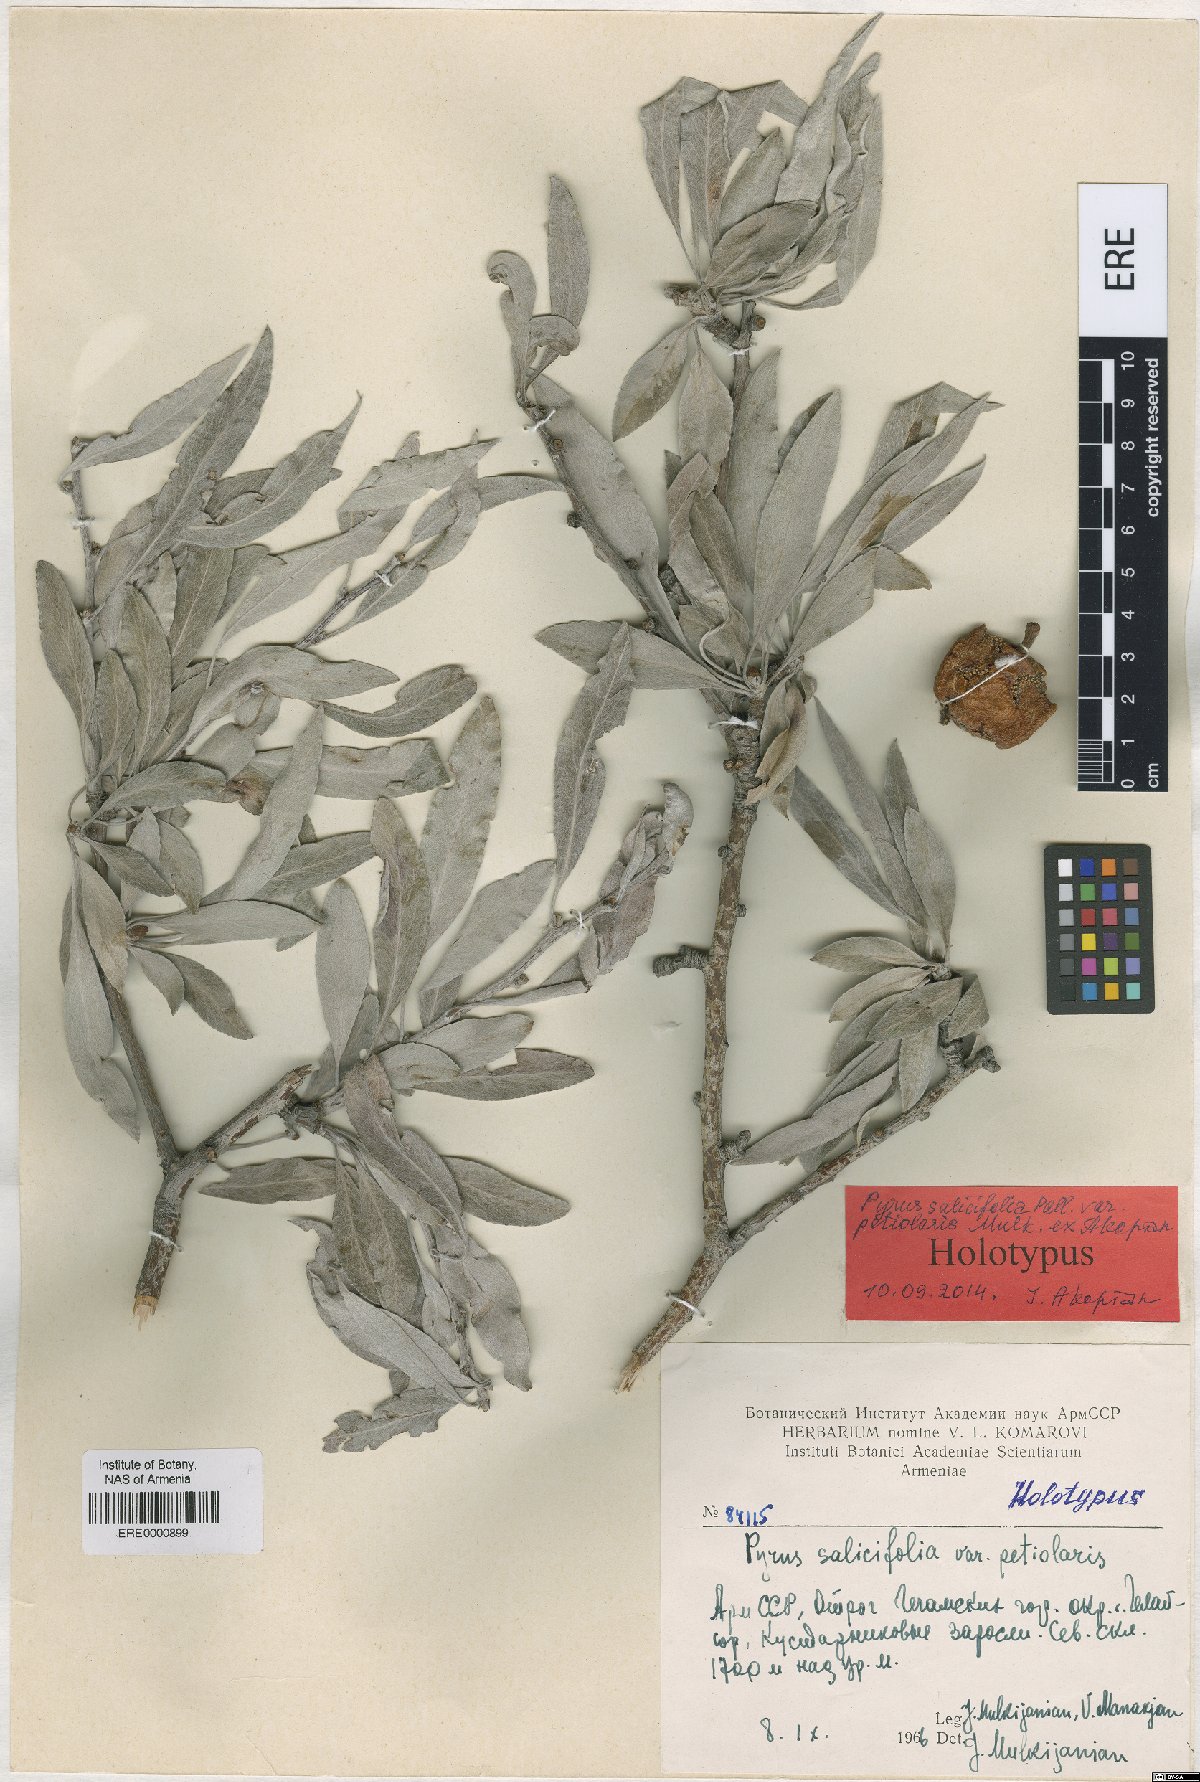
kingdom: Plantae
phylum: Tracheophyta
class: Magnoliopsida
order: Rosales
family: Rosaceae
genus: Pyrus
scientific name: Pyrus salicifolia
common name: Willow-leaved pear
